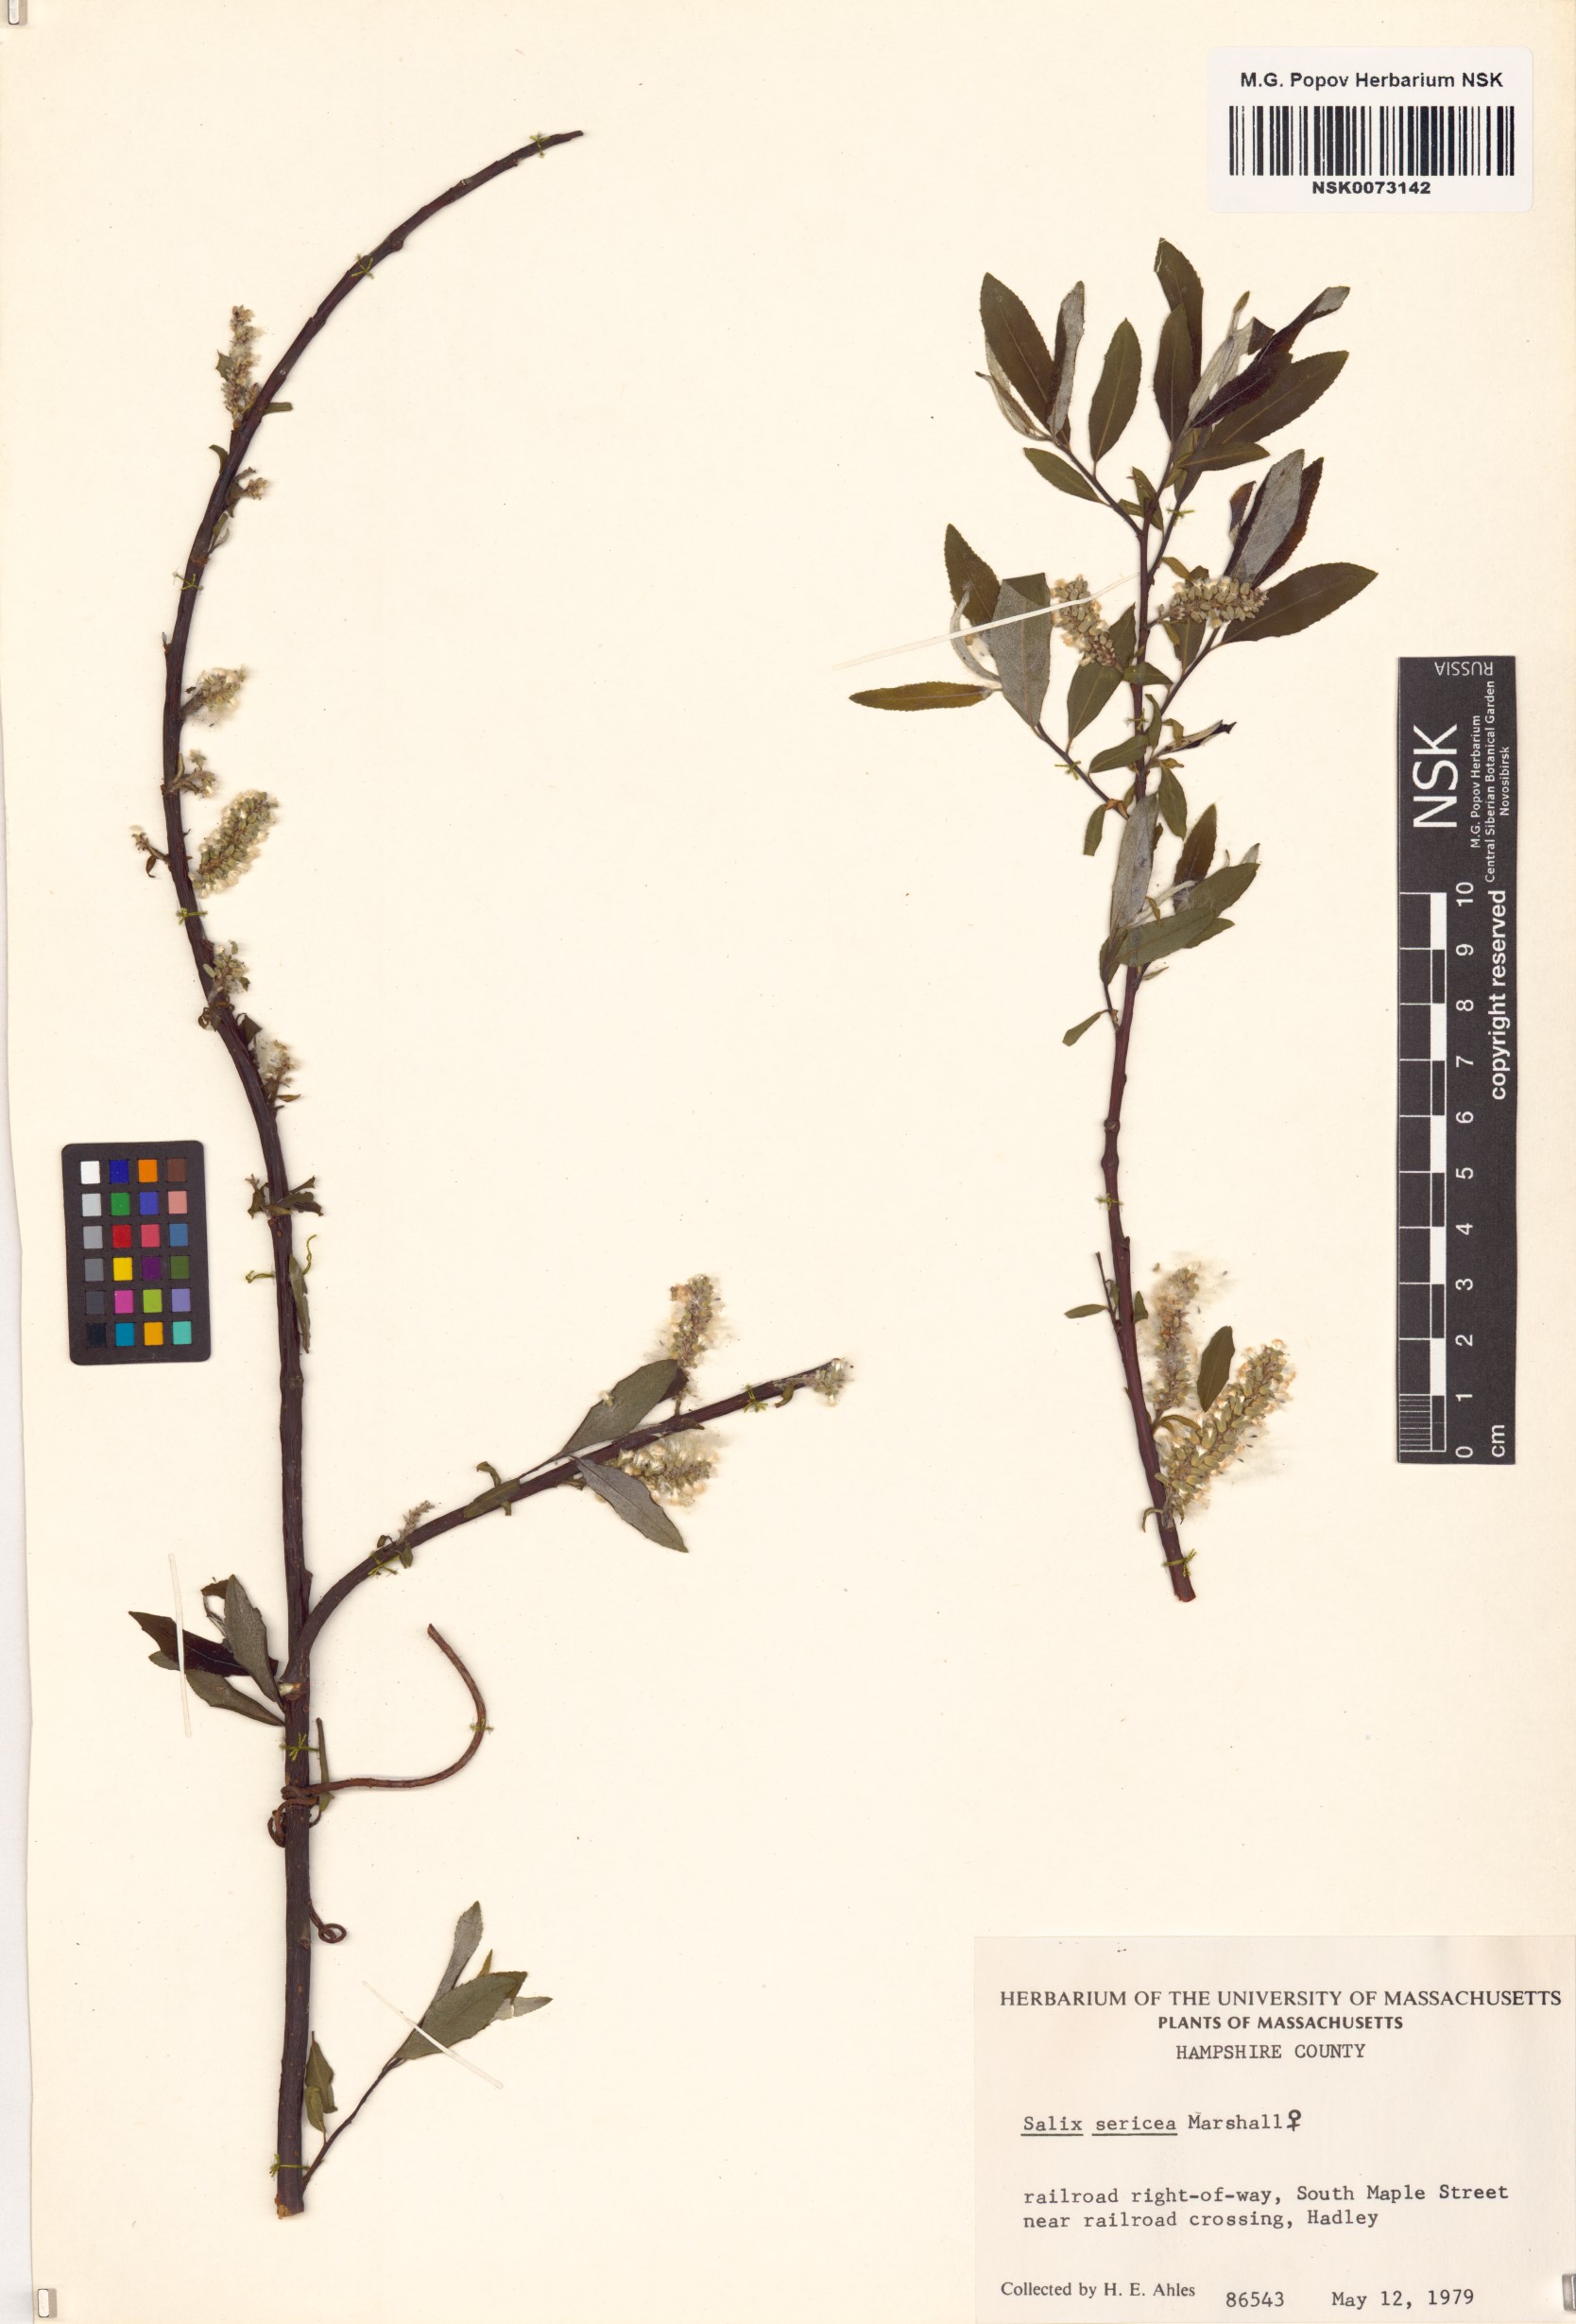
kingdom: Plantae
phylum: Tracheophyta
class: Magnoliopsida
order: Malpighiales
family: Salicaceae
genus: Salix
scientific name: Salix sericea
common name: Silky willow
